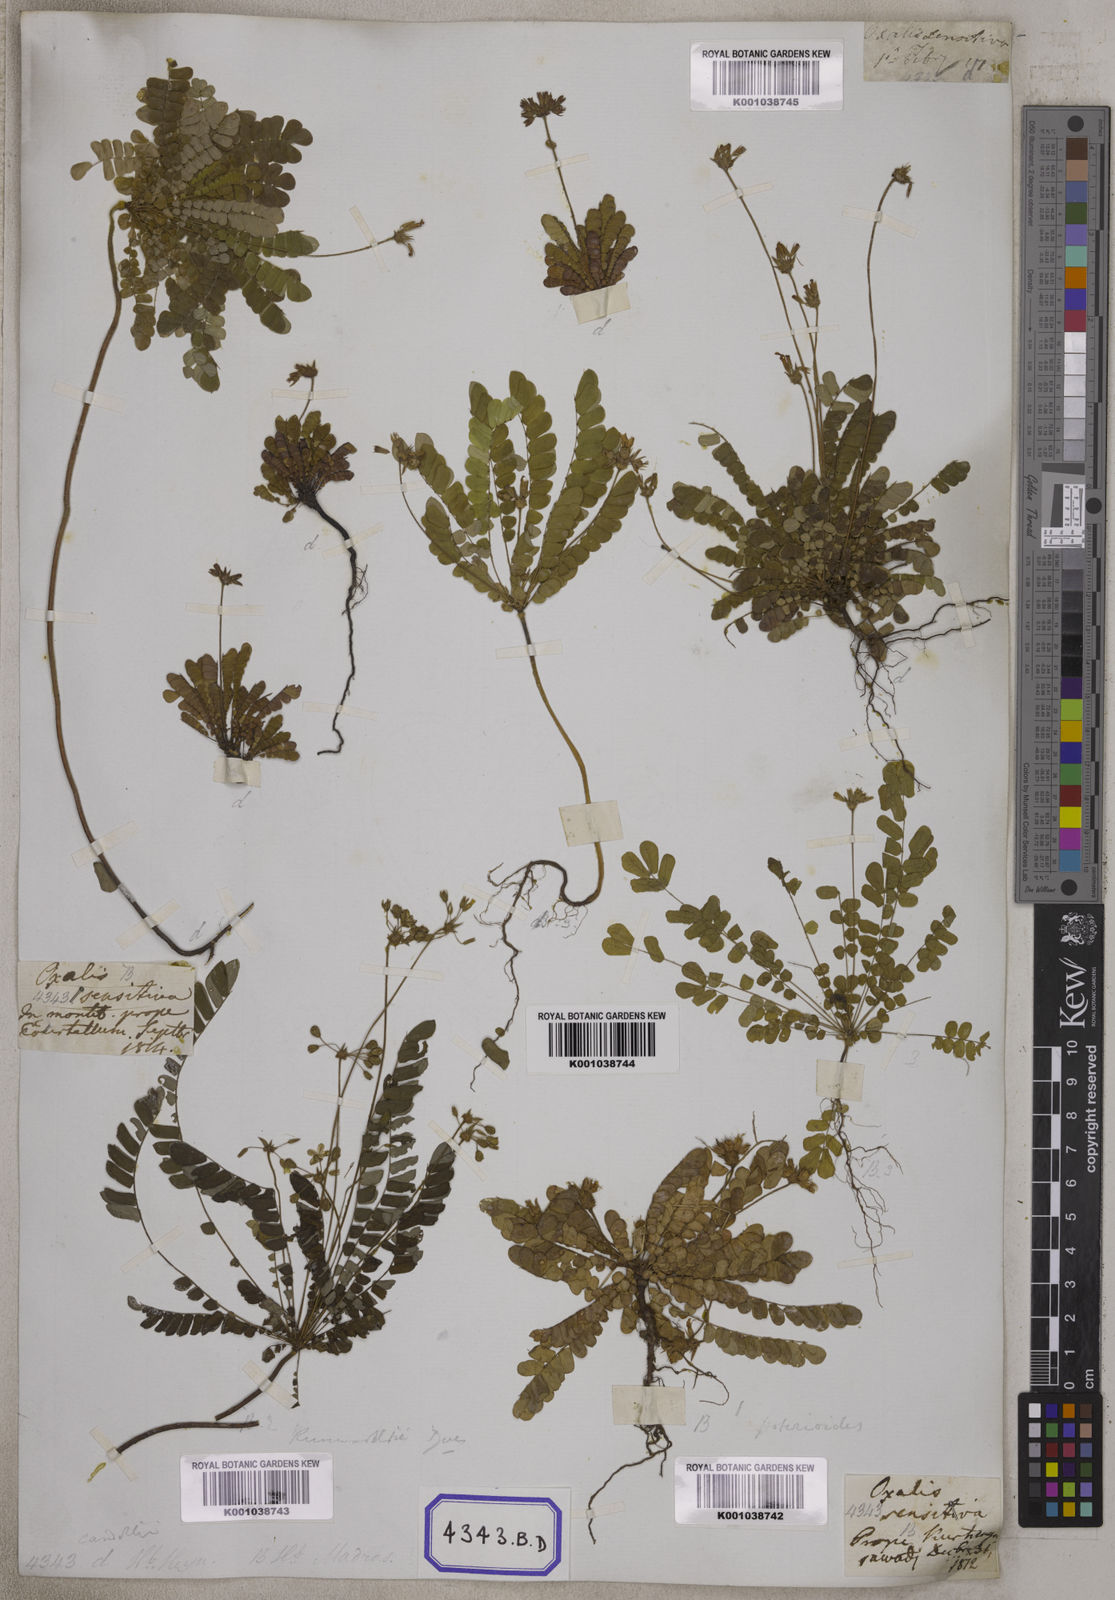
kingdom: Plantae
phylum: Tracheophyta
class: Magnoliopsida
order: Oxalidales
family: Oxalidaceae
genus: Biophytum
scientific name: Biophytum sensitivum
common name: Lifeplant
